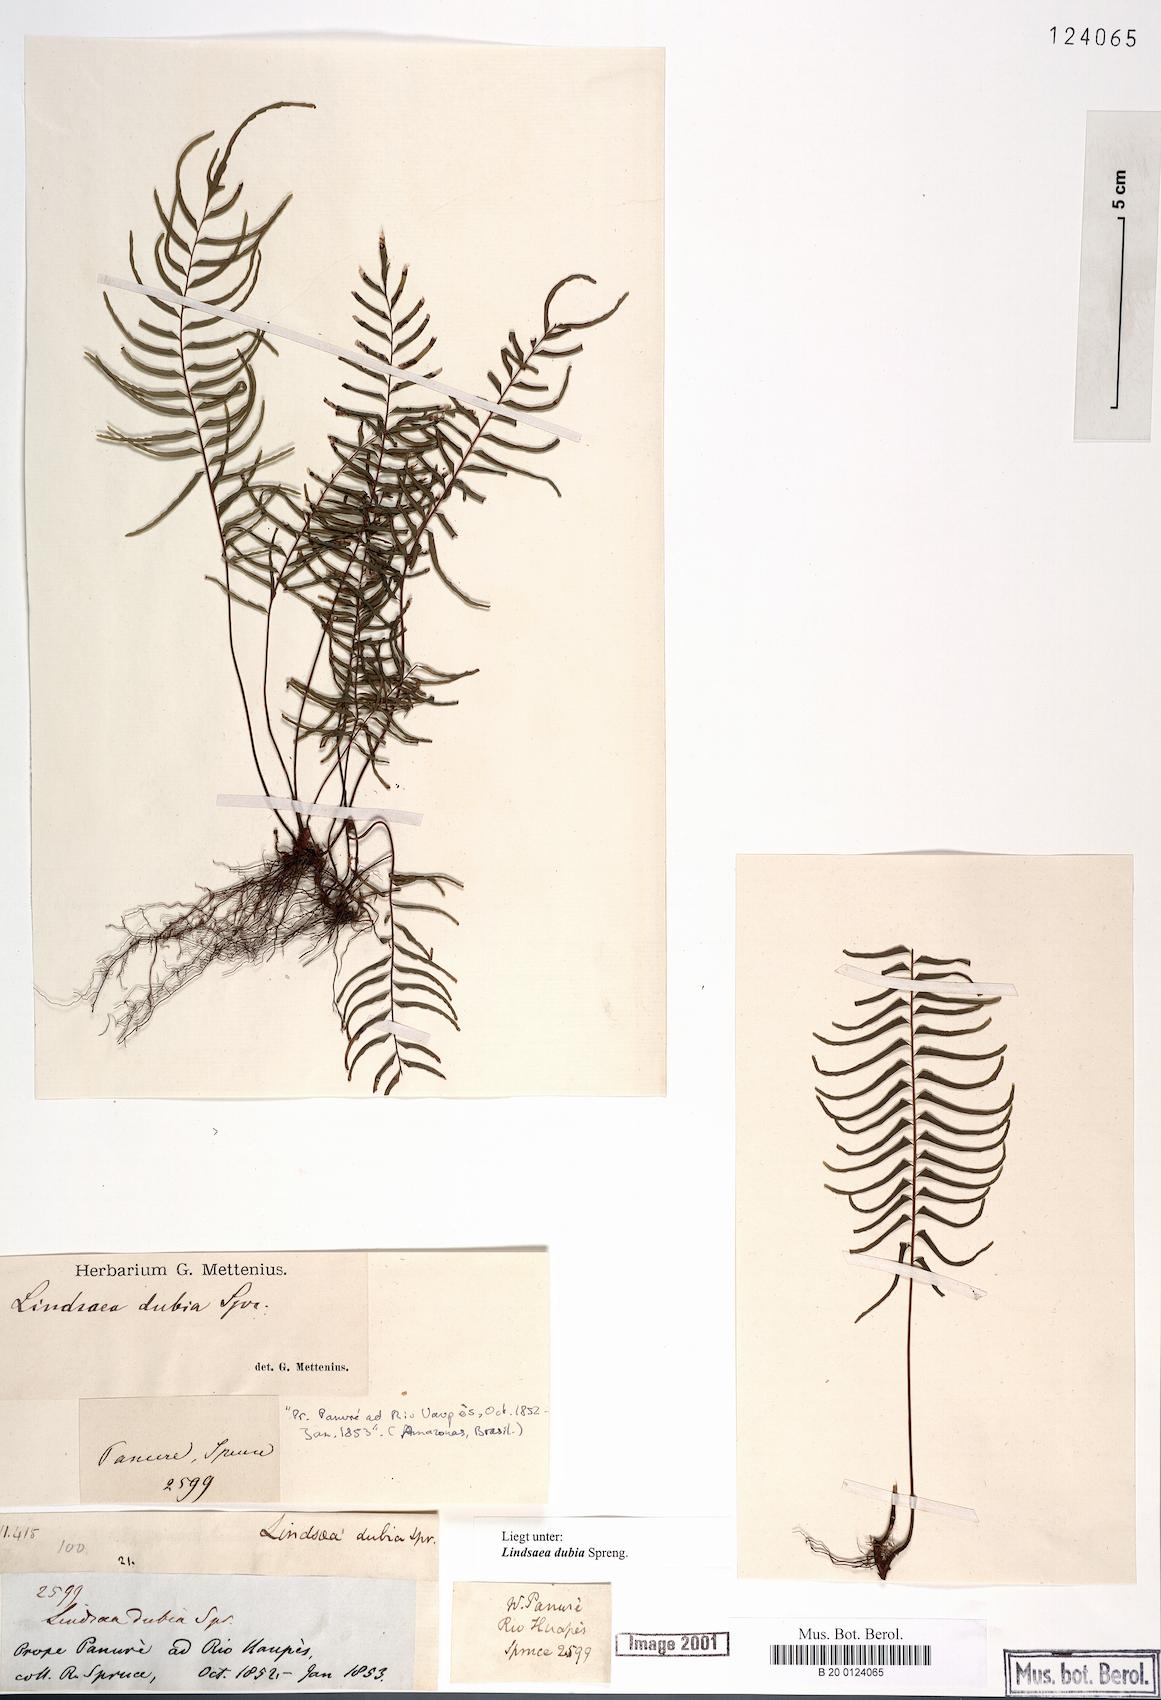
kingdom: Plantae
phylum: Tracheophyta
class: Polypodiopsida
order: Polypodiales
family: Lindsaeaceae
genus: Lindsaea
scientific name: Lindsaea dubia
